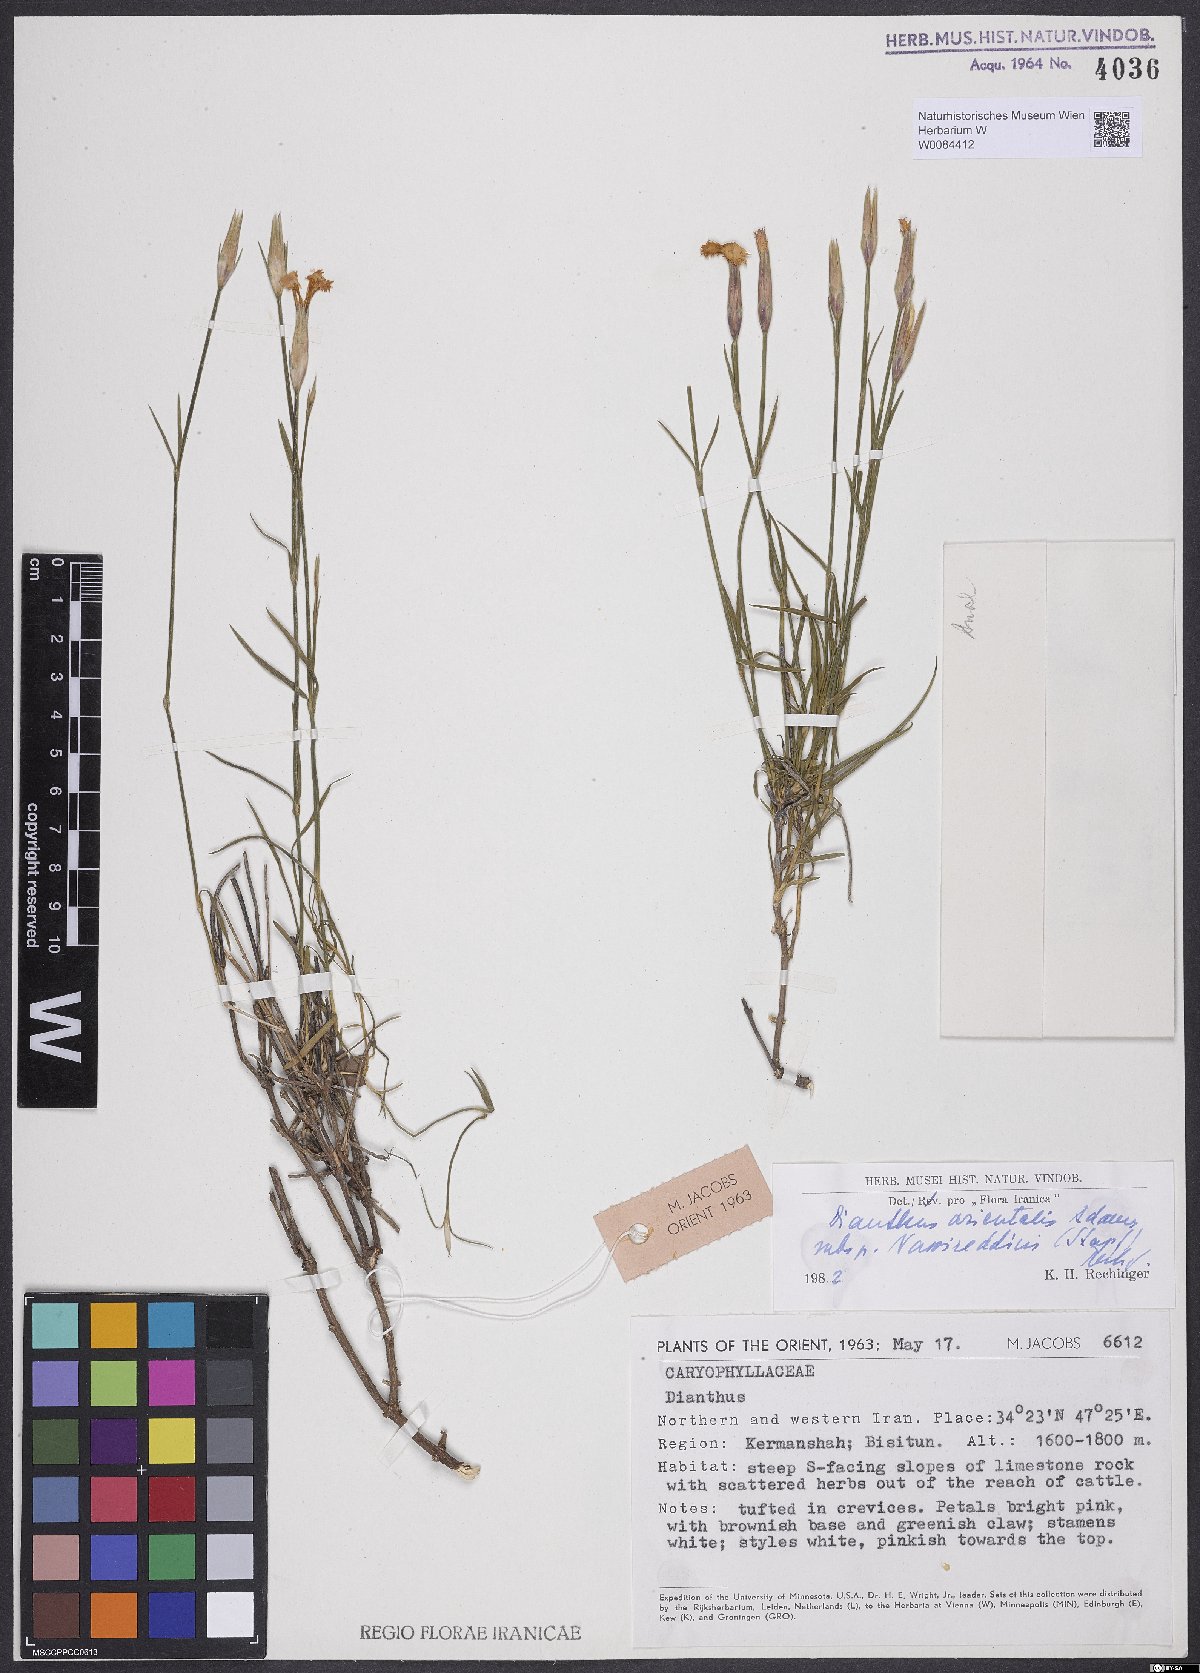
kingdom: Plantae
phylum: Tracheophyta
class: Magnoliopsida
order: Caryophyllales
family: Caryophyllaceae
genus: Dianthus
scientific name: Dianthus orientalis
